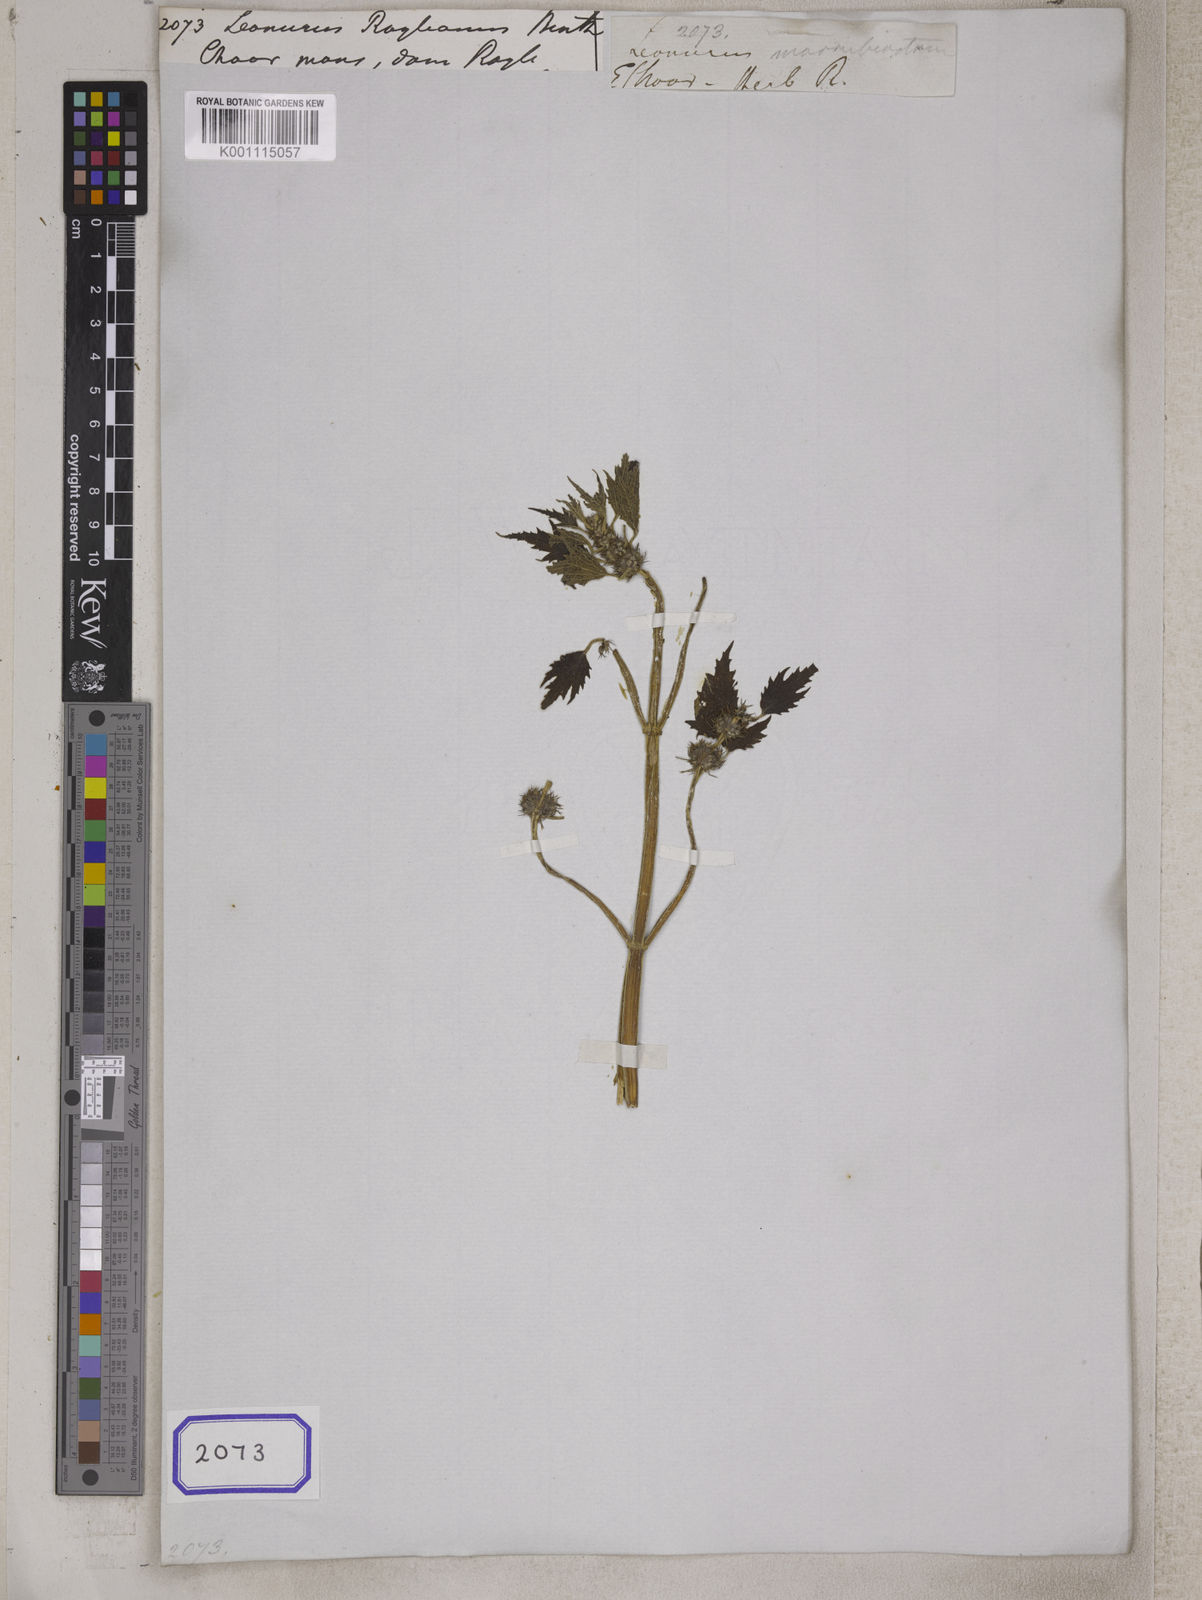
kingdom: Plantae
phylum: Tracheophyta
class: Magnoliopsida
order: Lamiales
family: Lamiaceae
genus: Leonurus
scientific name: Leonurus royleanus
